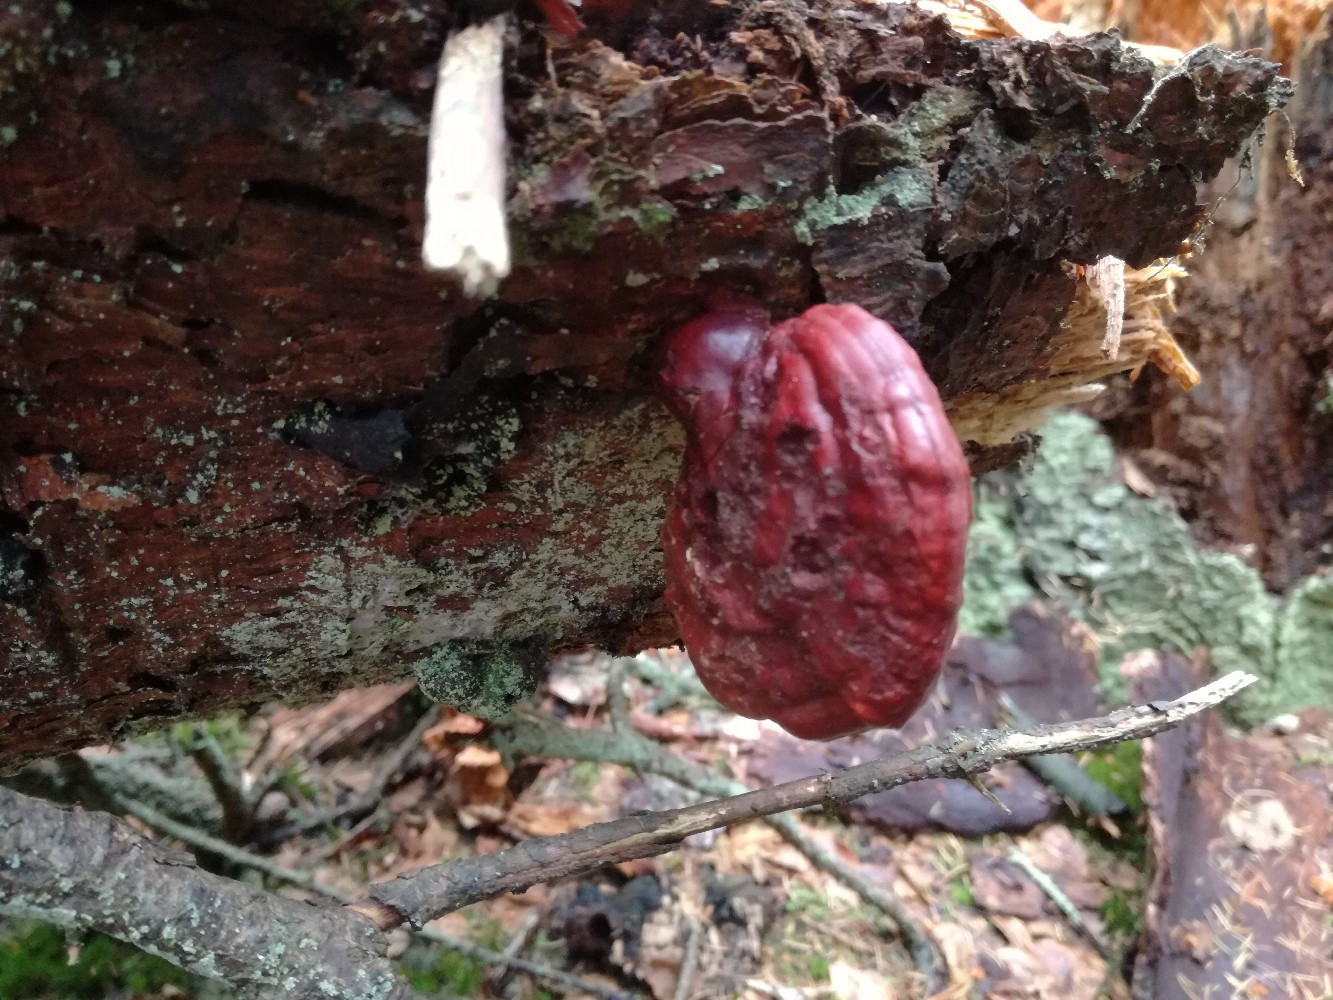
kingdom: Fungi
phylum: Basidiomycota
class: Agaricomycetes
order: Polyporales
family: Polyporaceae
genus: Ganoderma
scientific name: Ganoderma lucidum
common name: skinnende lakporesvamp
